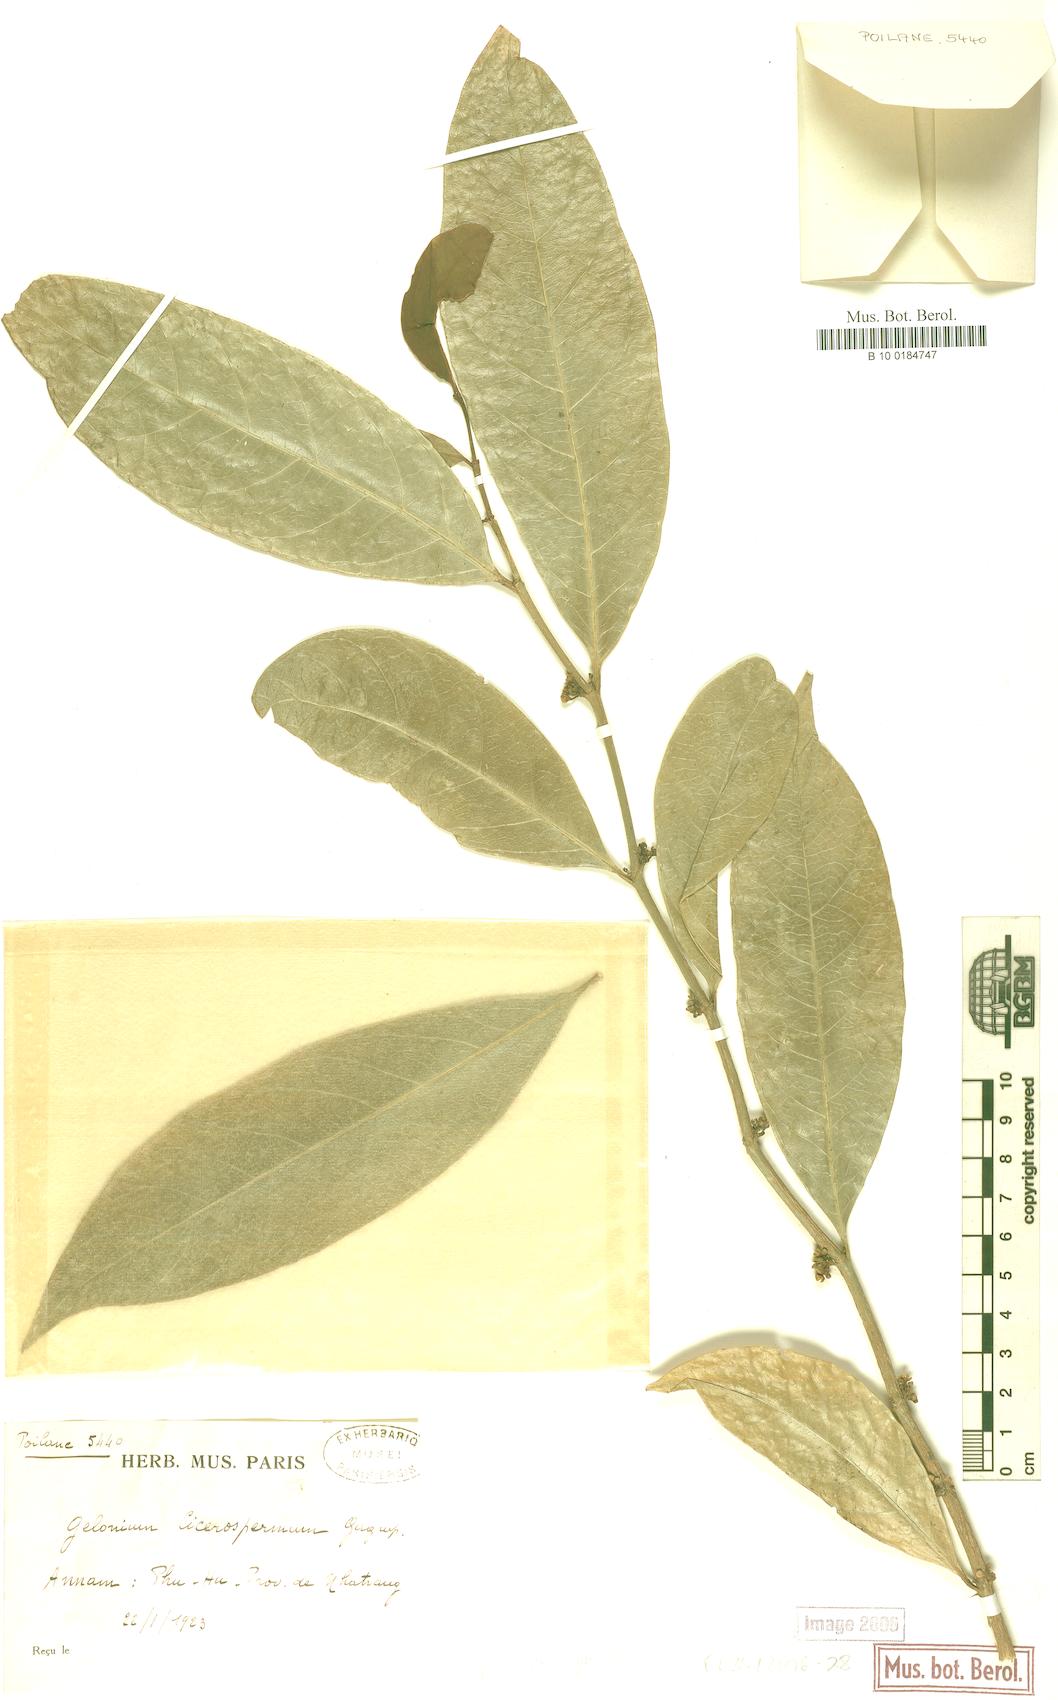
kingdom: Plantae
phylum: Tracheophyta
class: Magnoliopsida
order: Malpighiales
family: Euphorbiaceae
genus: Suregada
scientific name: Suregada cicerosperma
